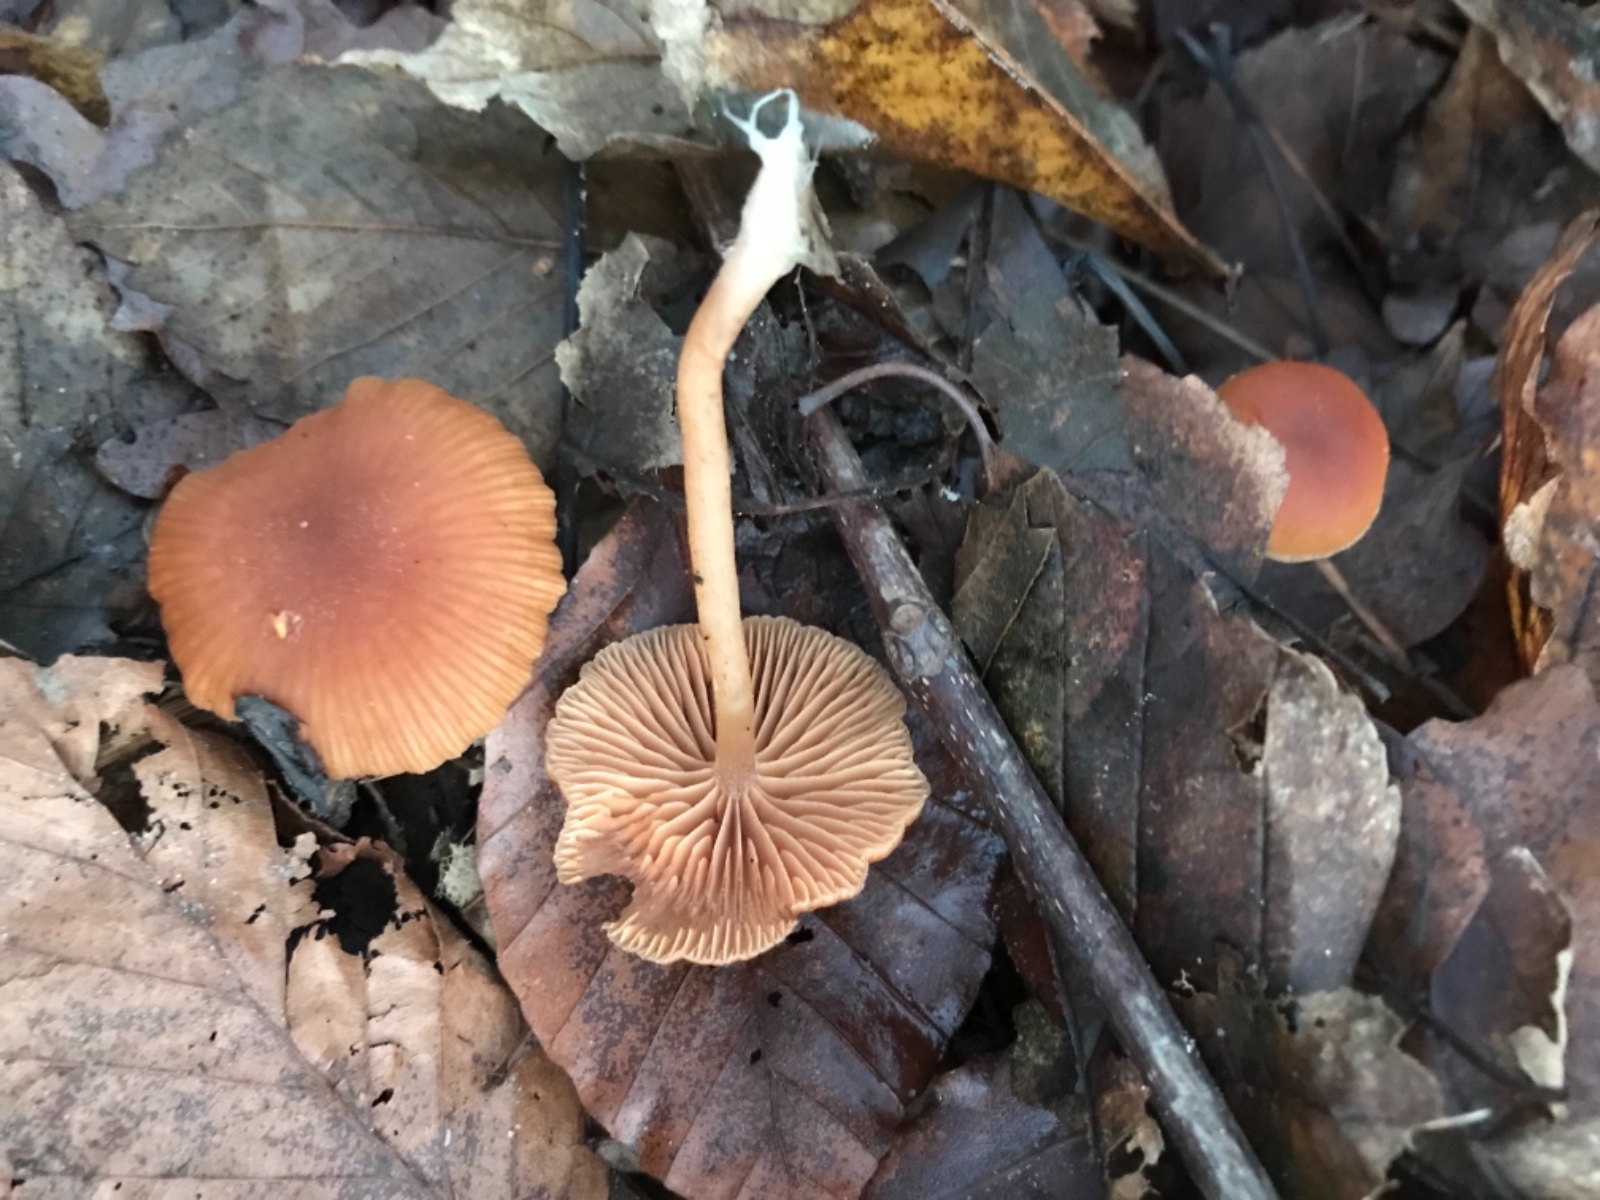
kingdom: Fungi
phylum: Basidiomycota
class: Agaricomycetes
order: Agaricales
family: Tubariaceae
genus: Tubaria
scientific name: Tubaria furfuracea
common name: kliddet fnughat
